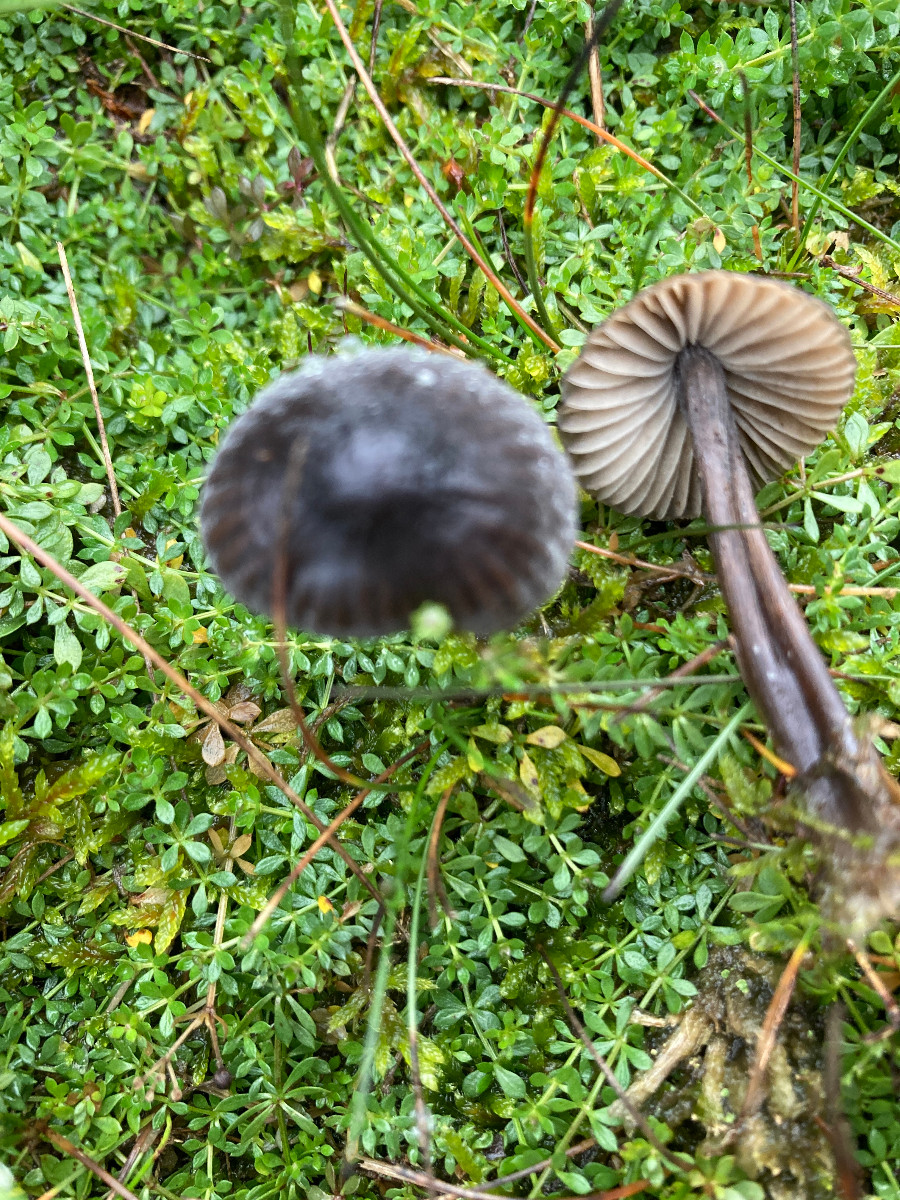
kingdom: Fungi
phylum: Basidiomycota
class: Agaricomycetes
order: Agaricales
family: Mycenaceae
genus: Mycena
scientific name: Mycena
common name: huesvamp
